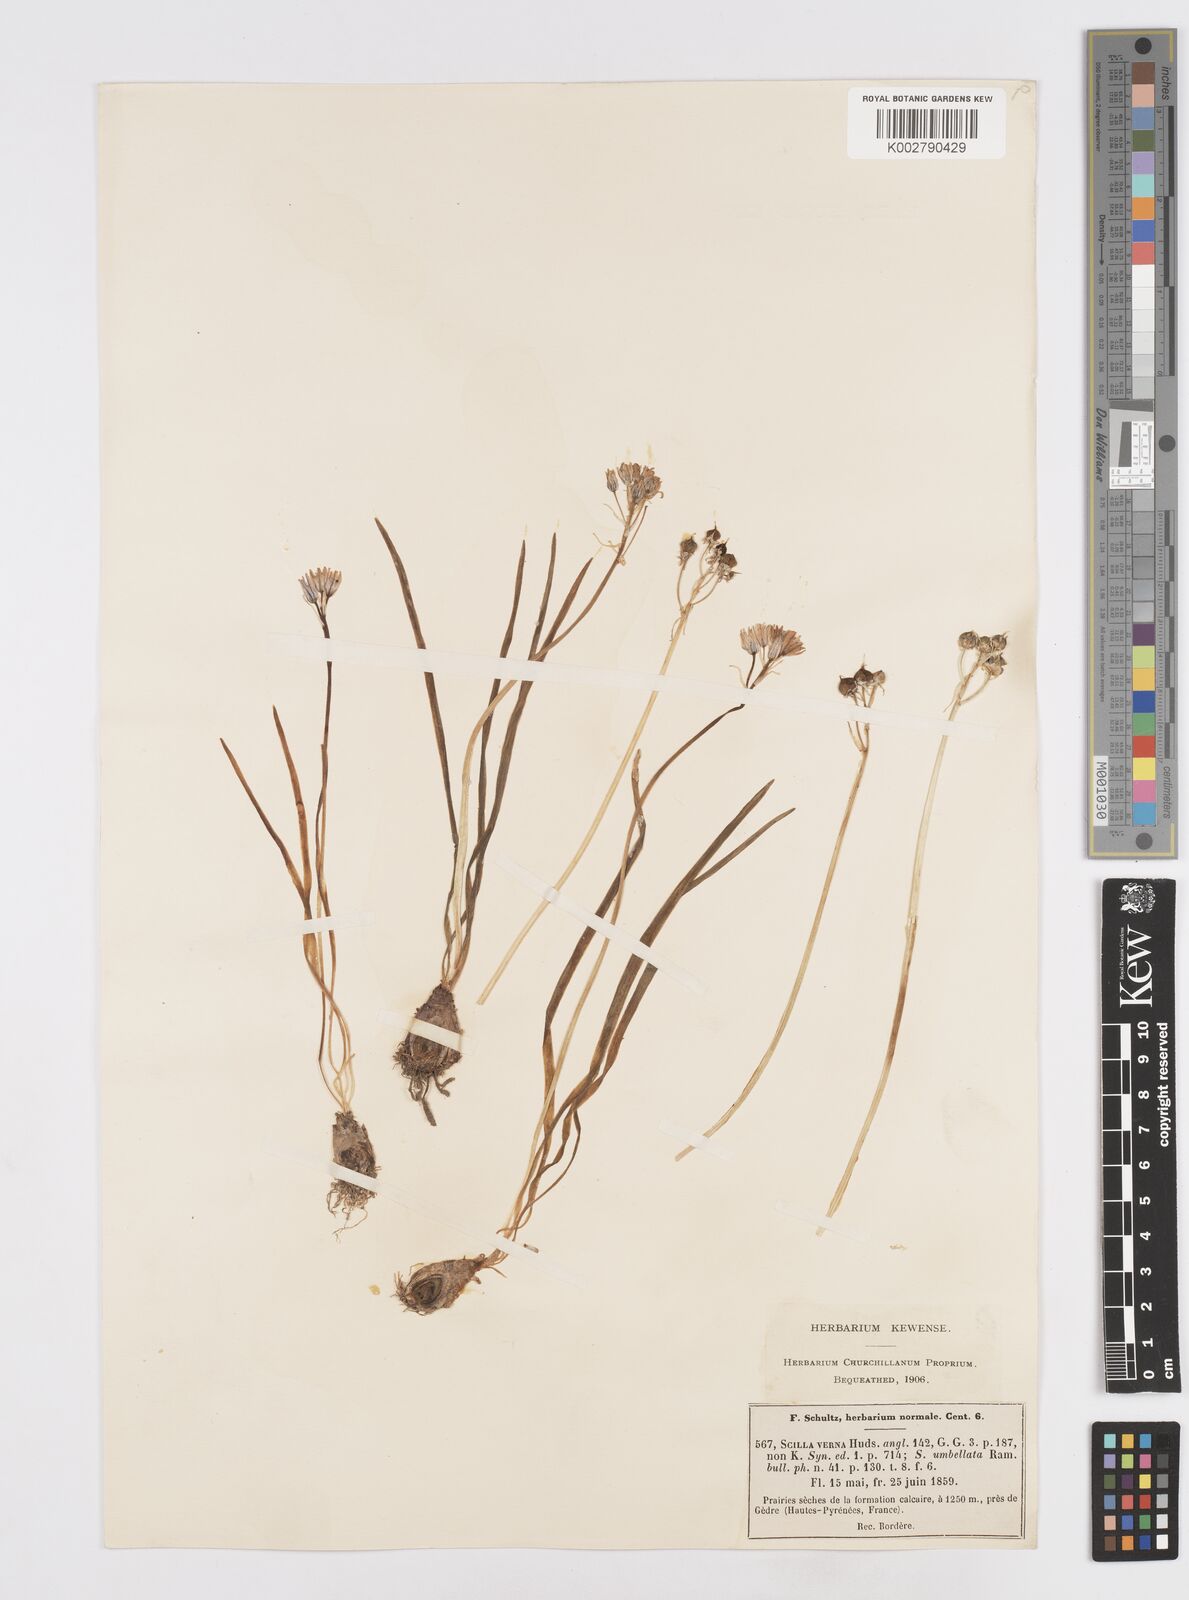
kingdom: Plantae
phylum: Tracheophyta
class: Liliopsida
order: Asparagales
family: Asparagaceae
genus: Scilla
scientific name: Scilla verna
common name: Spring squill
